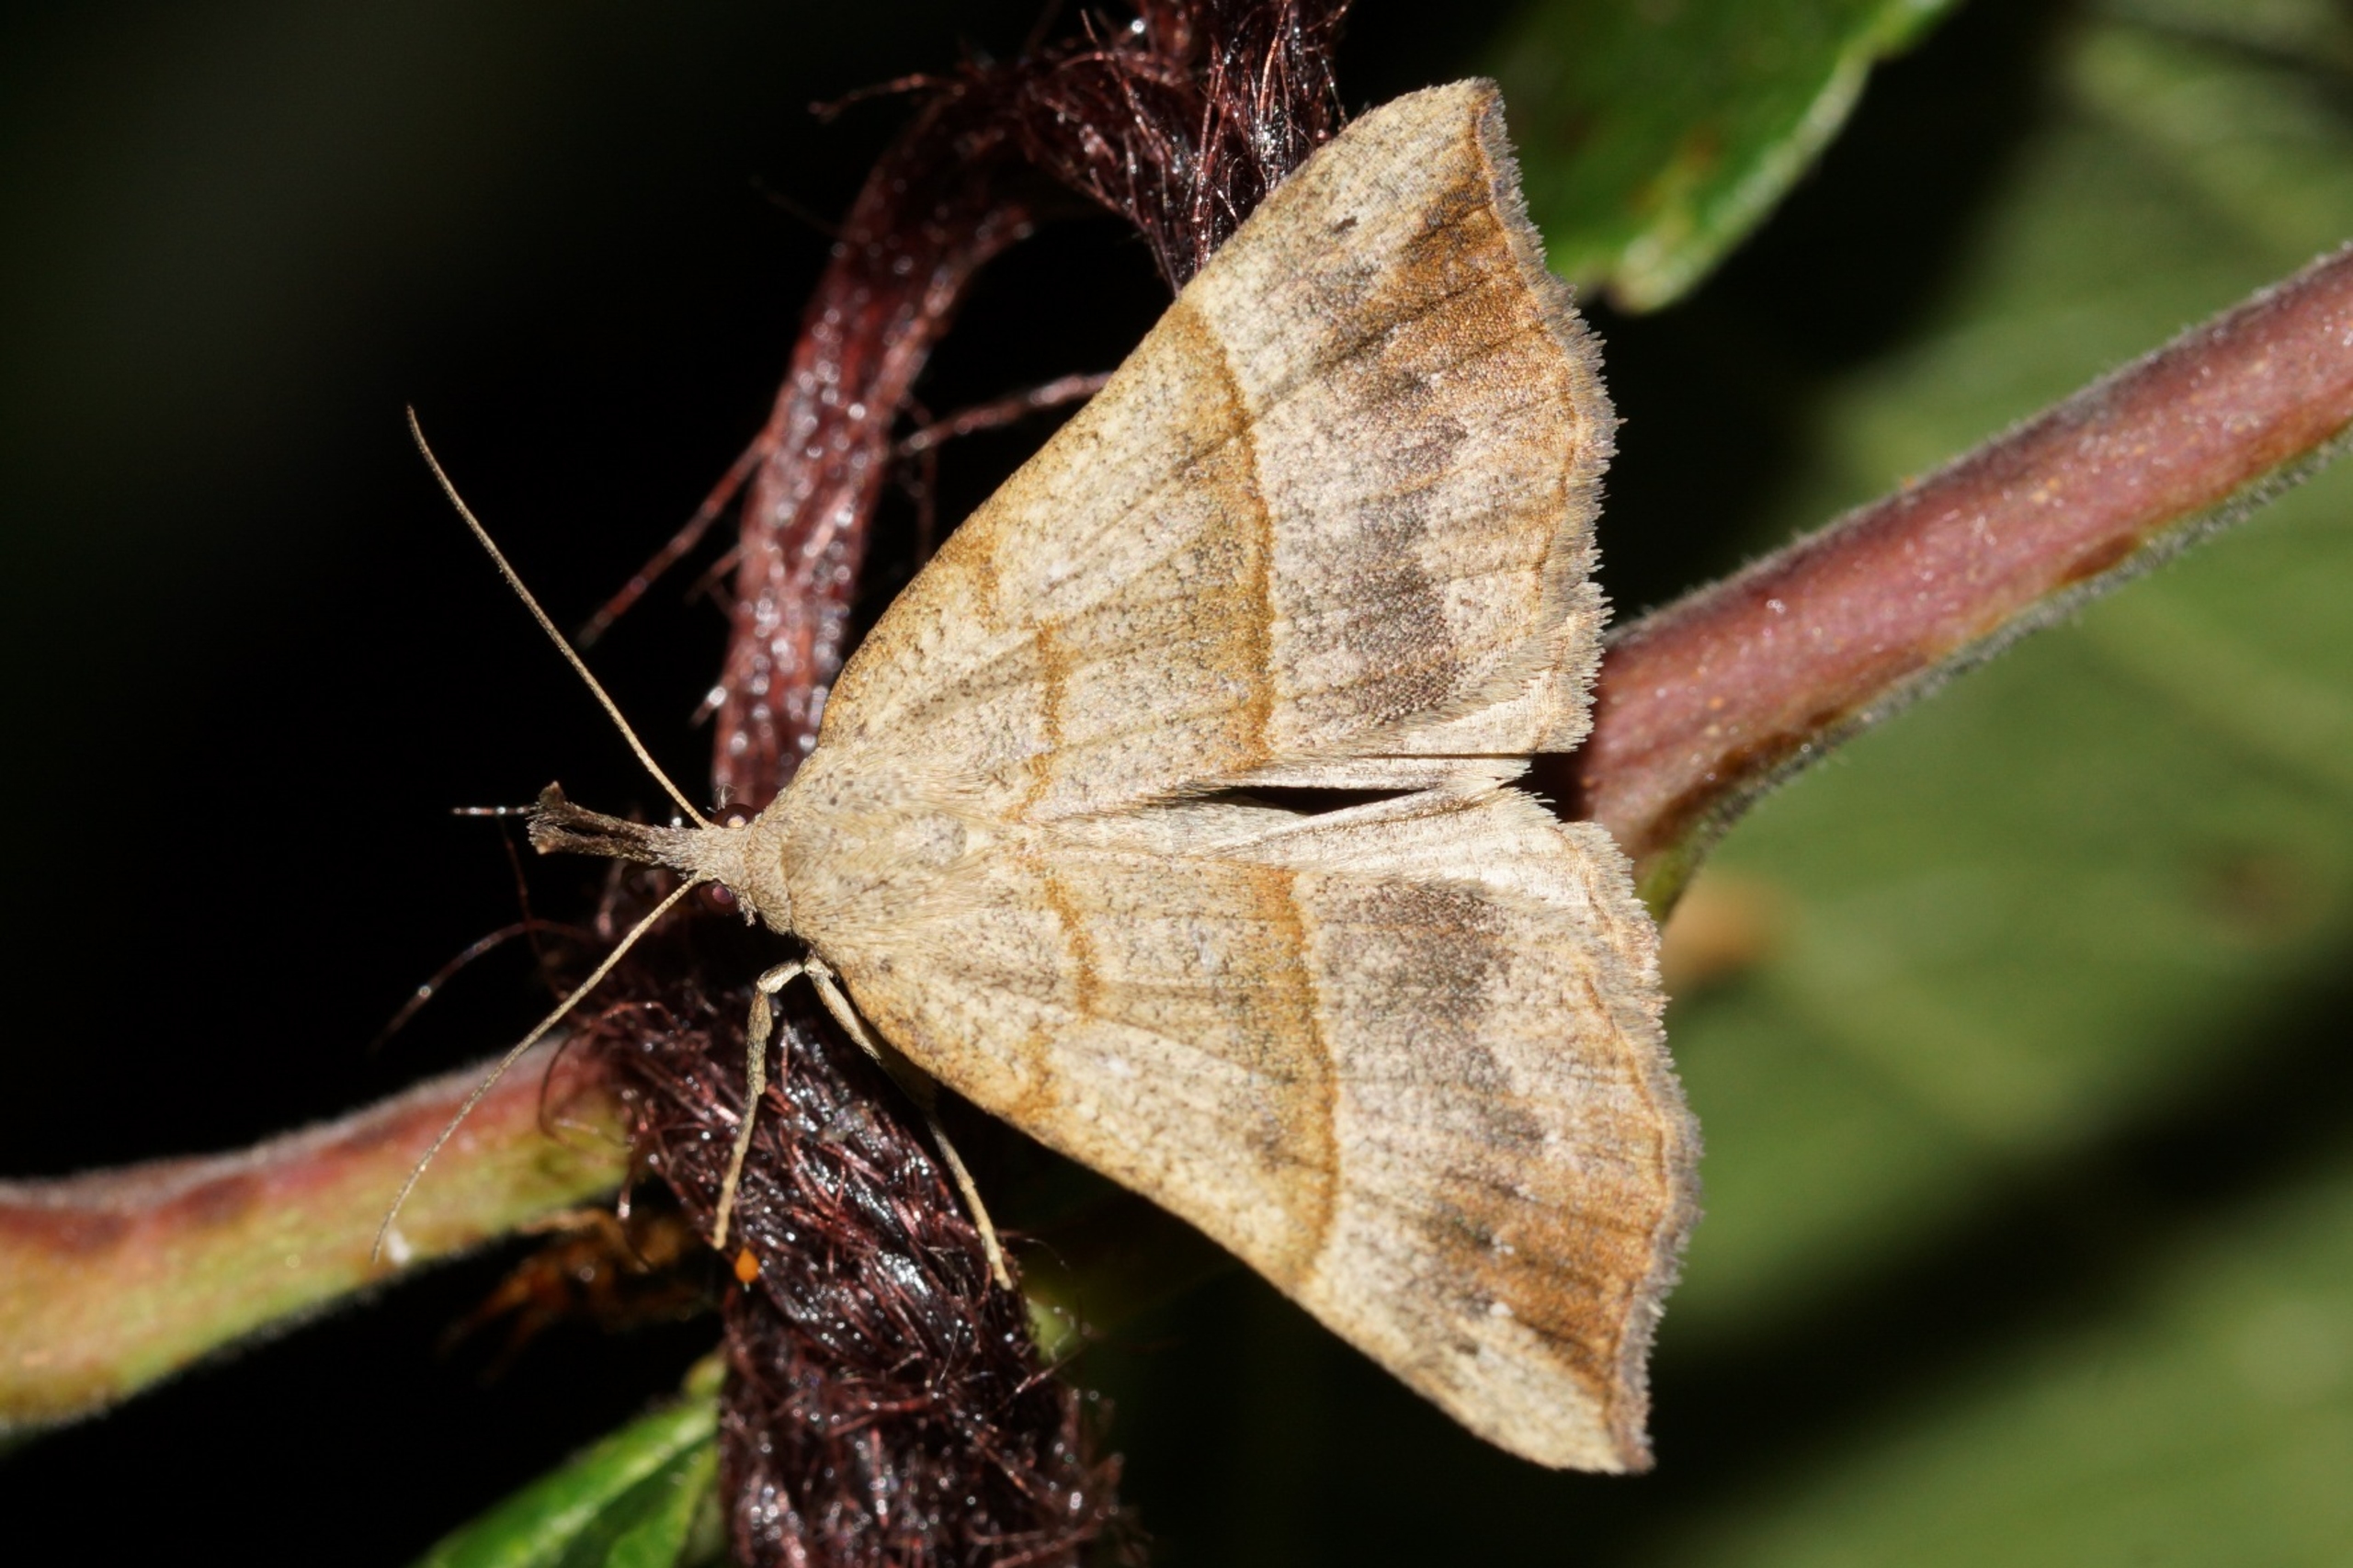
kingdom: Animalia
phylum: Arthropoda
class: Insecta
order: Lepidoptera
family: Erebidae
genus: Hypena
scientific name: Hypena proboscidalis
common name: Snudeugle
